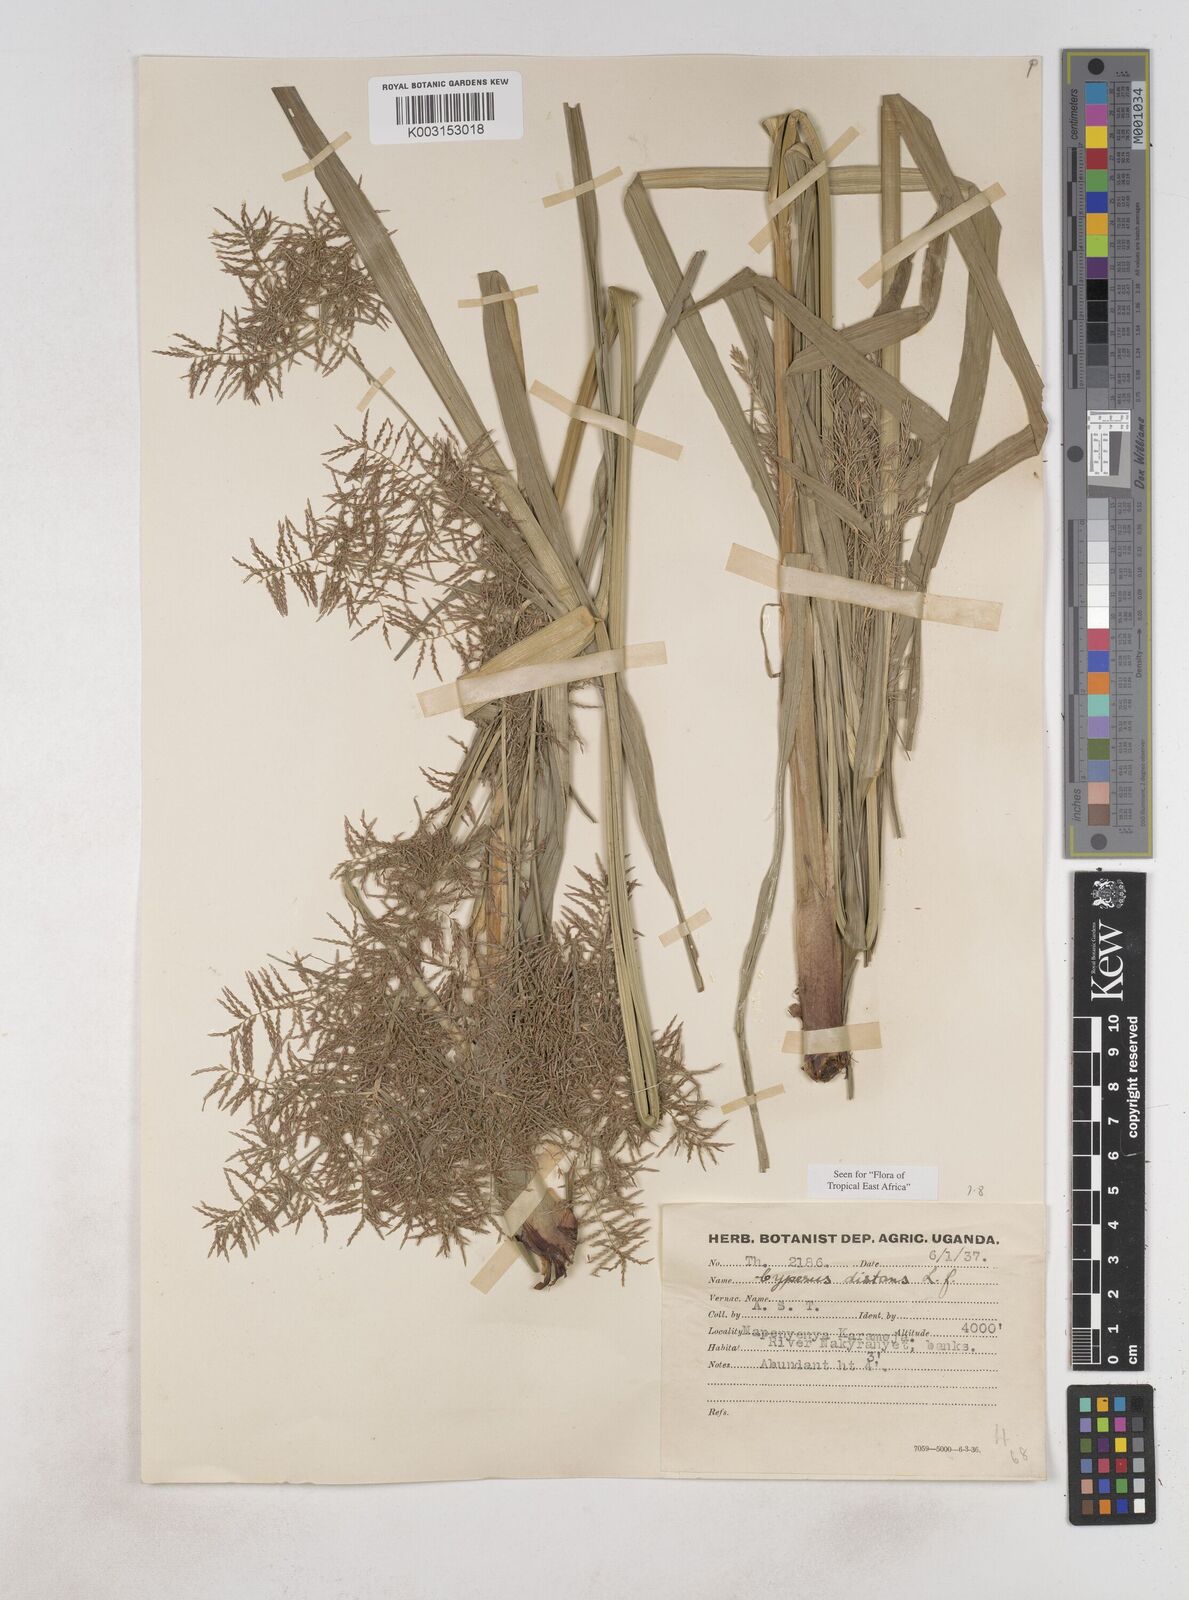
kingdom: Plantae
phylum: Tracheophyta
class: Liliopsida
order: Poales
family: Cyperaceae
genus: Cyperus
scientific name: Cyperus distans
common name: Slender cyperus
